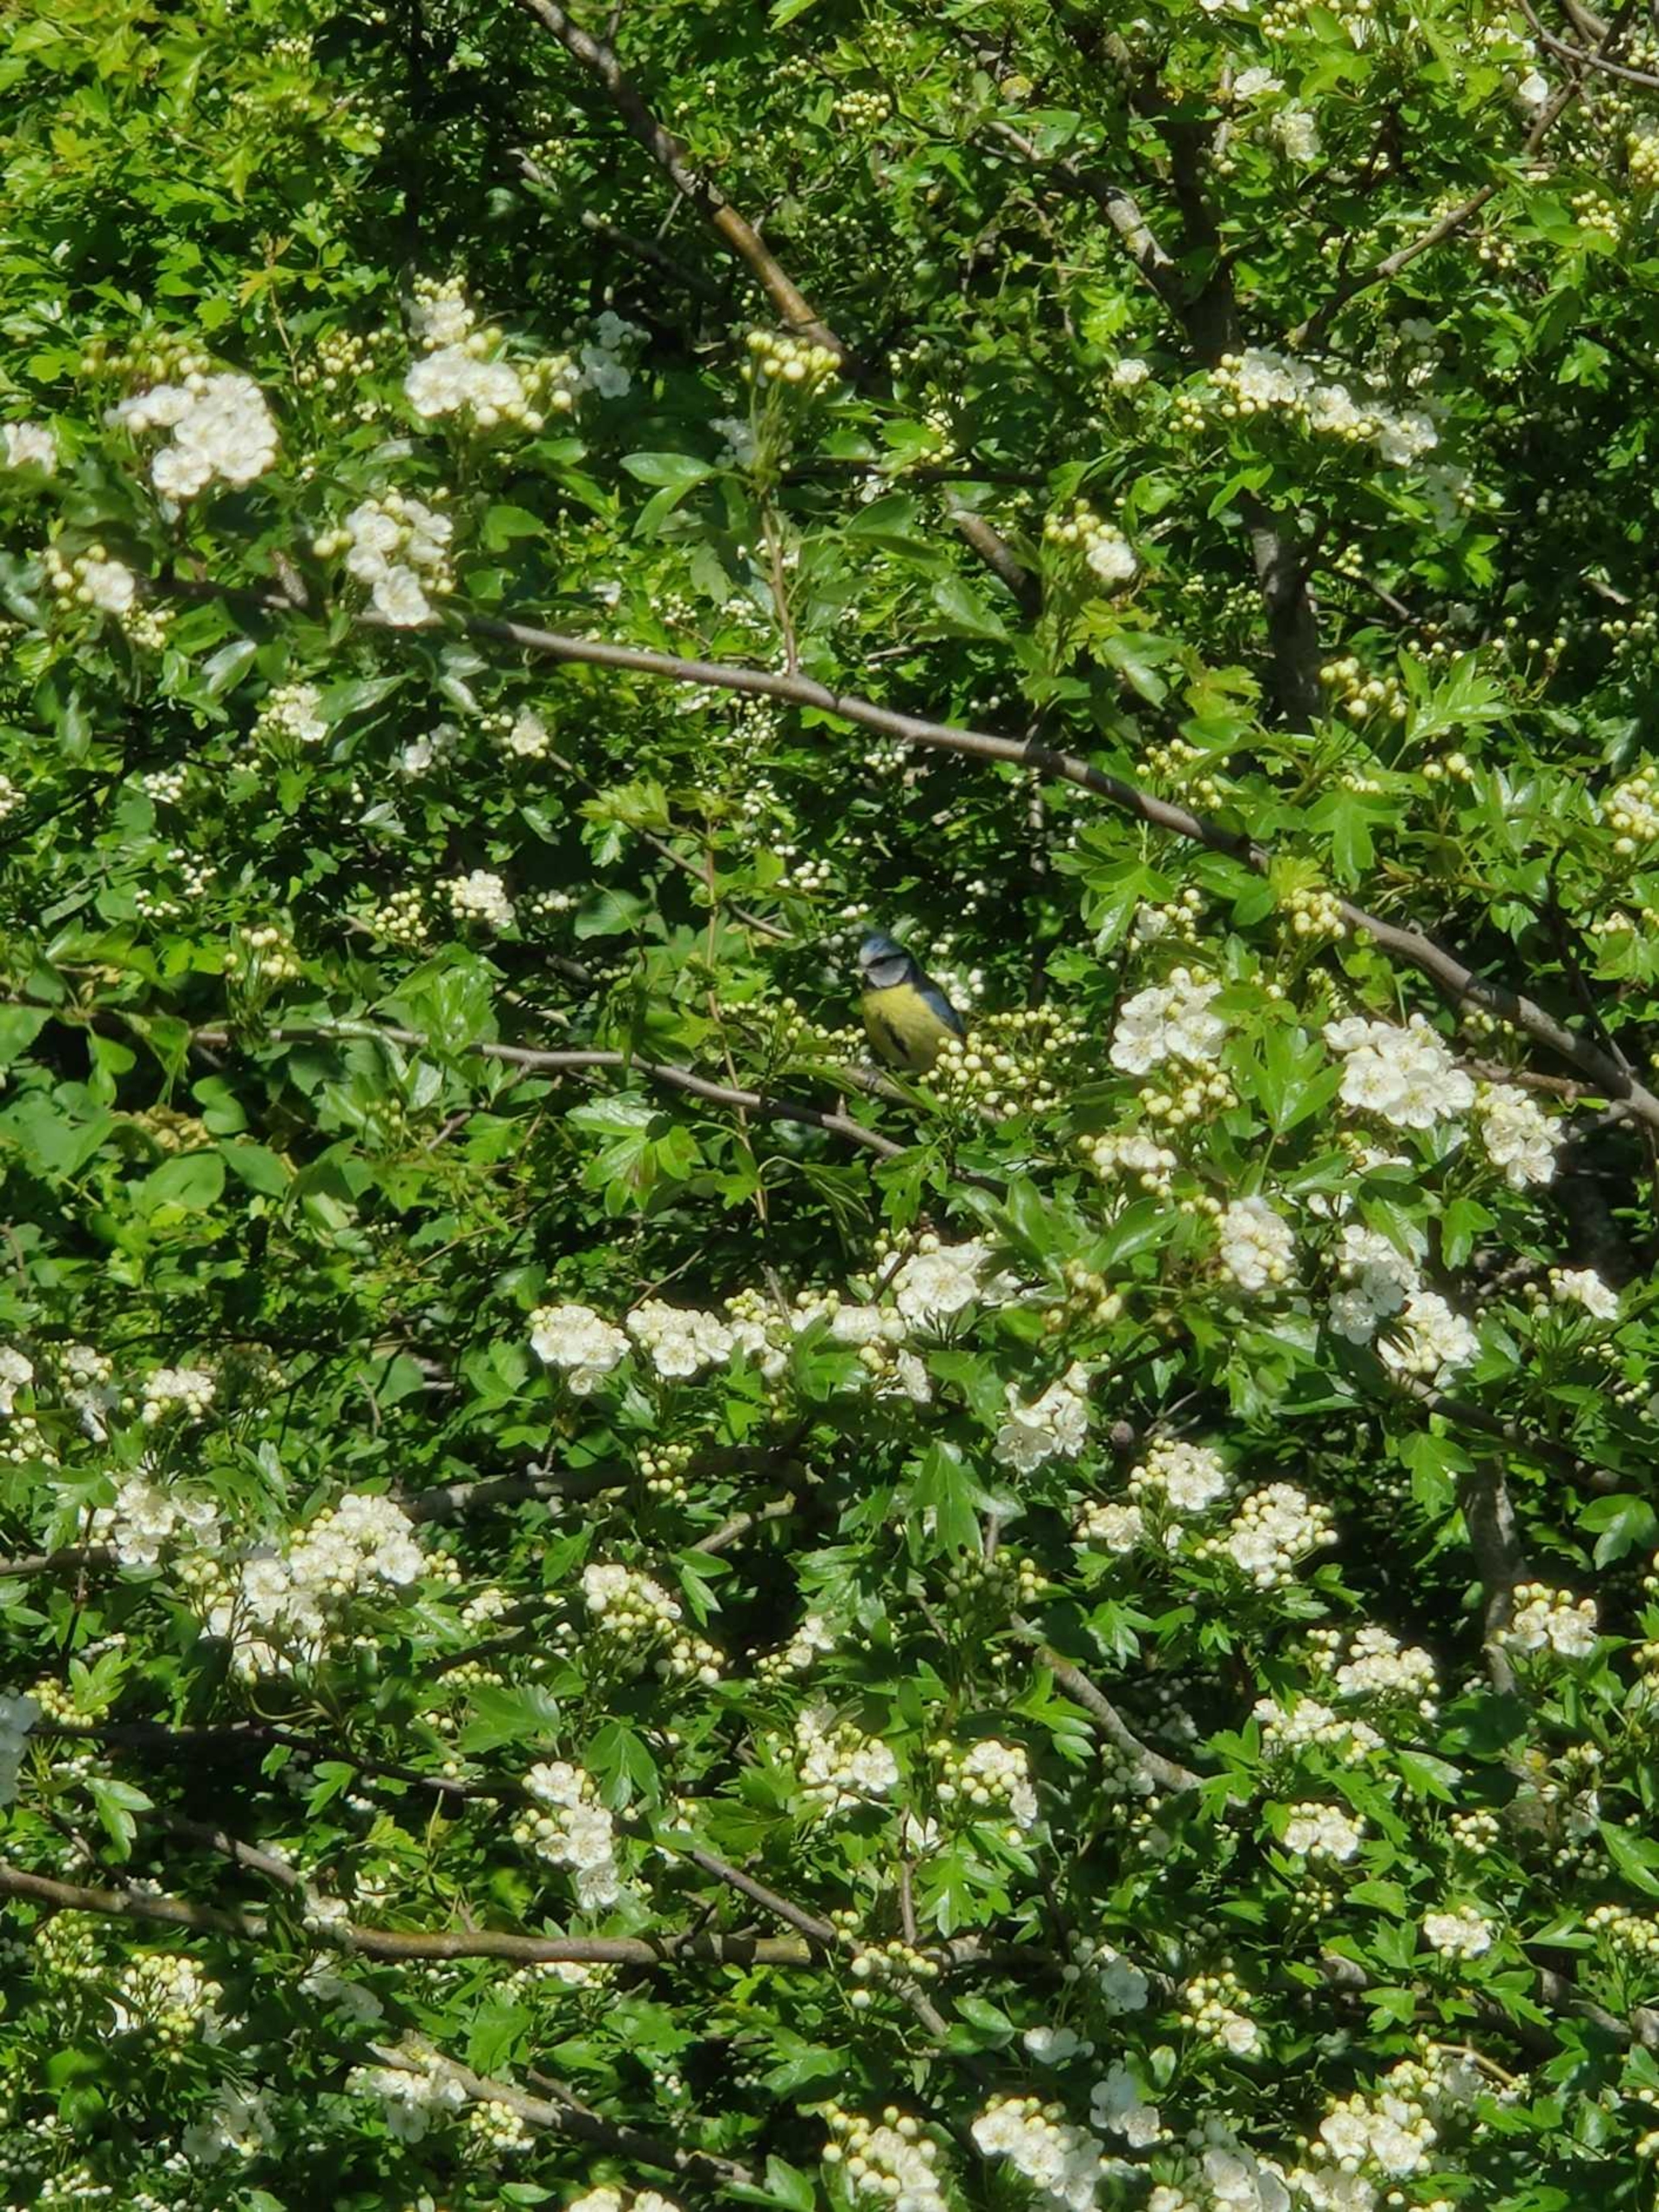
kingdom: Animalia
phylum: Chordata
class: Aves
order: Passeriformes
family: Paridae
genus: Cyanistes
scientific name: Cyanistes caeruleus
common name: Blåmejse
